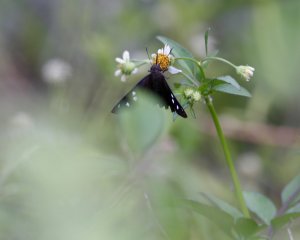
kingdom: Animalia
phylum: Arthropoda
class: Insecta
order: Lepidoptera
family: Hesperiidae
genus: Polygonus
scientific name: Polygonus leo
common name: Hammock Skipper
